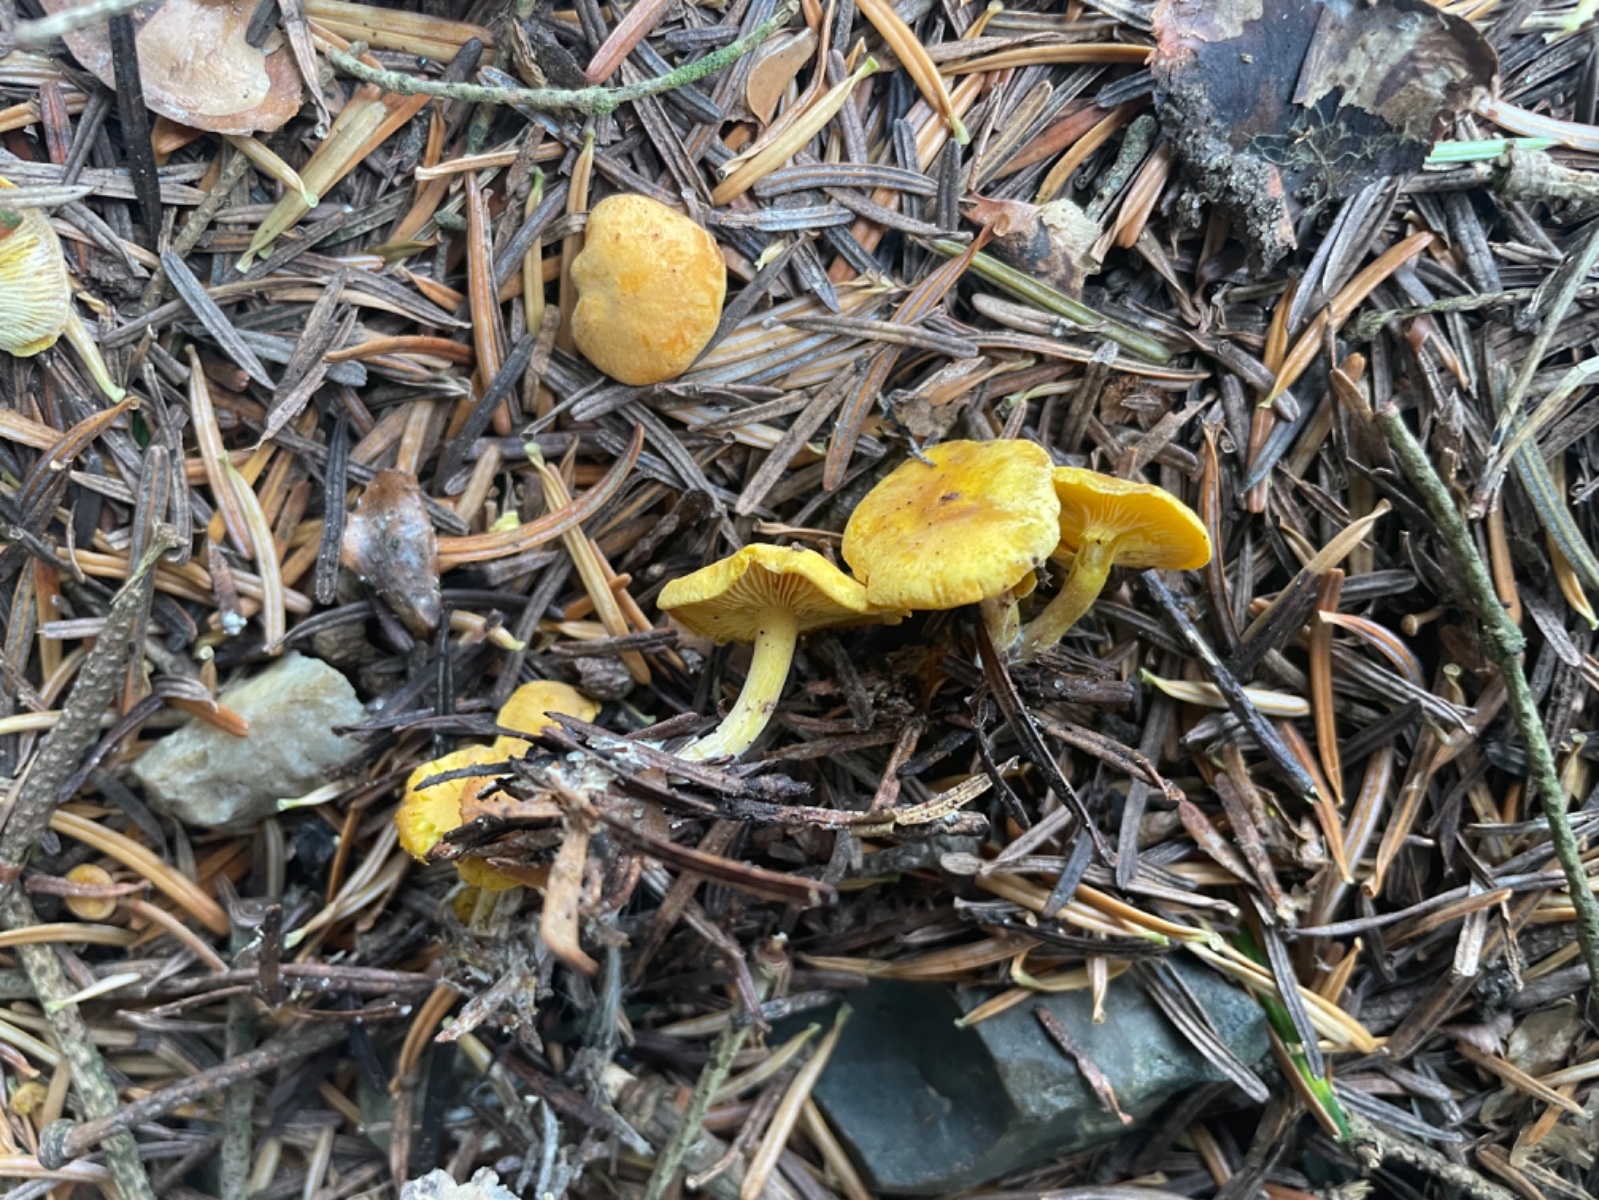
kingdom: Fungi
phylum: Basidiomycota
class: Agaricomycetes
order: Agaricales
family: Lyophyllaceae
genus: Calocybe
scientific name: Calocybe chrysenteron
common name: brandgul fagerhat
